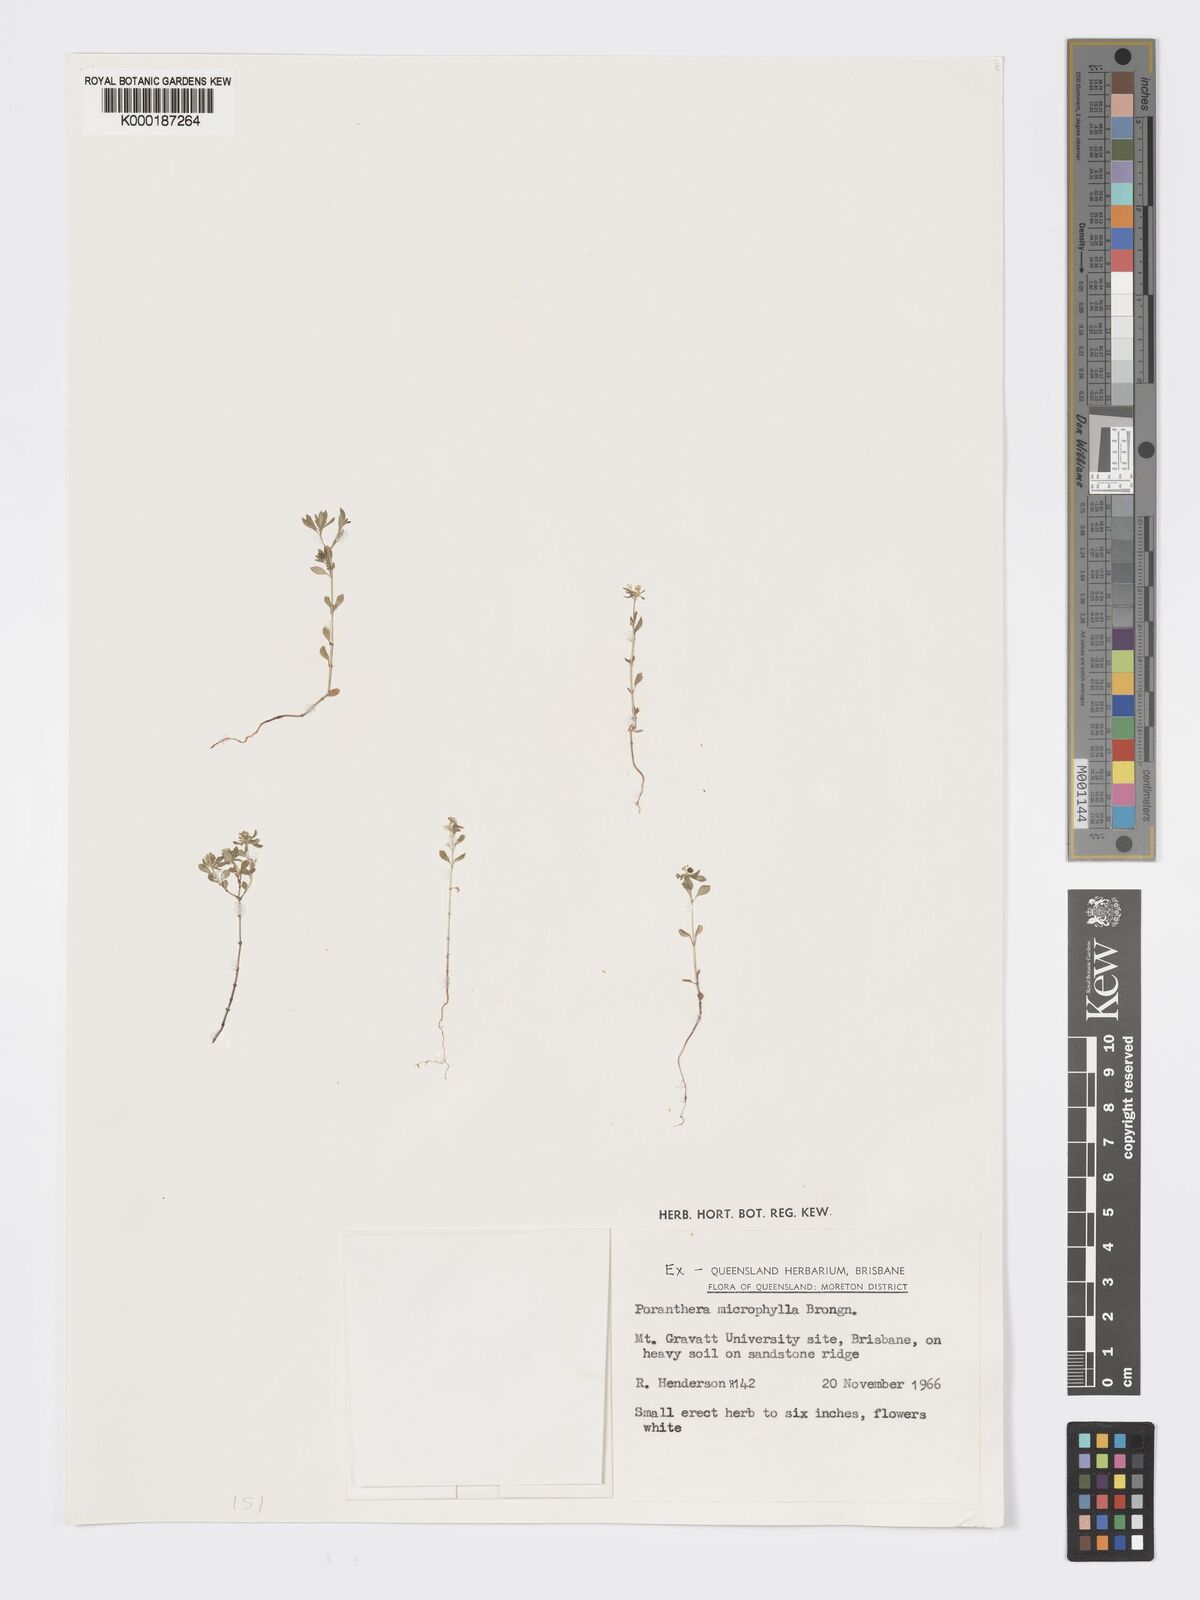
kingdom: Plantae
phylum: Tracheophyta
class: Magnoliopsida
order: Malpighiales
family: Phyllanthaceae
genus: Poranthera
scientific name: Poranthera microphylla
